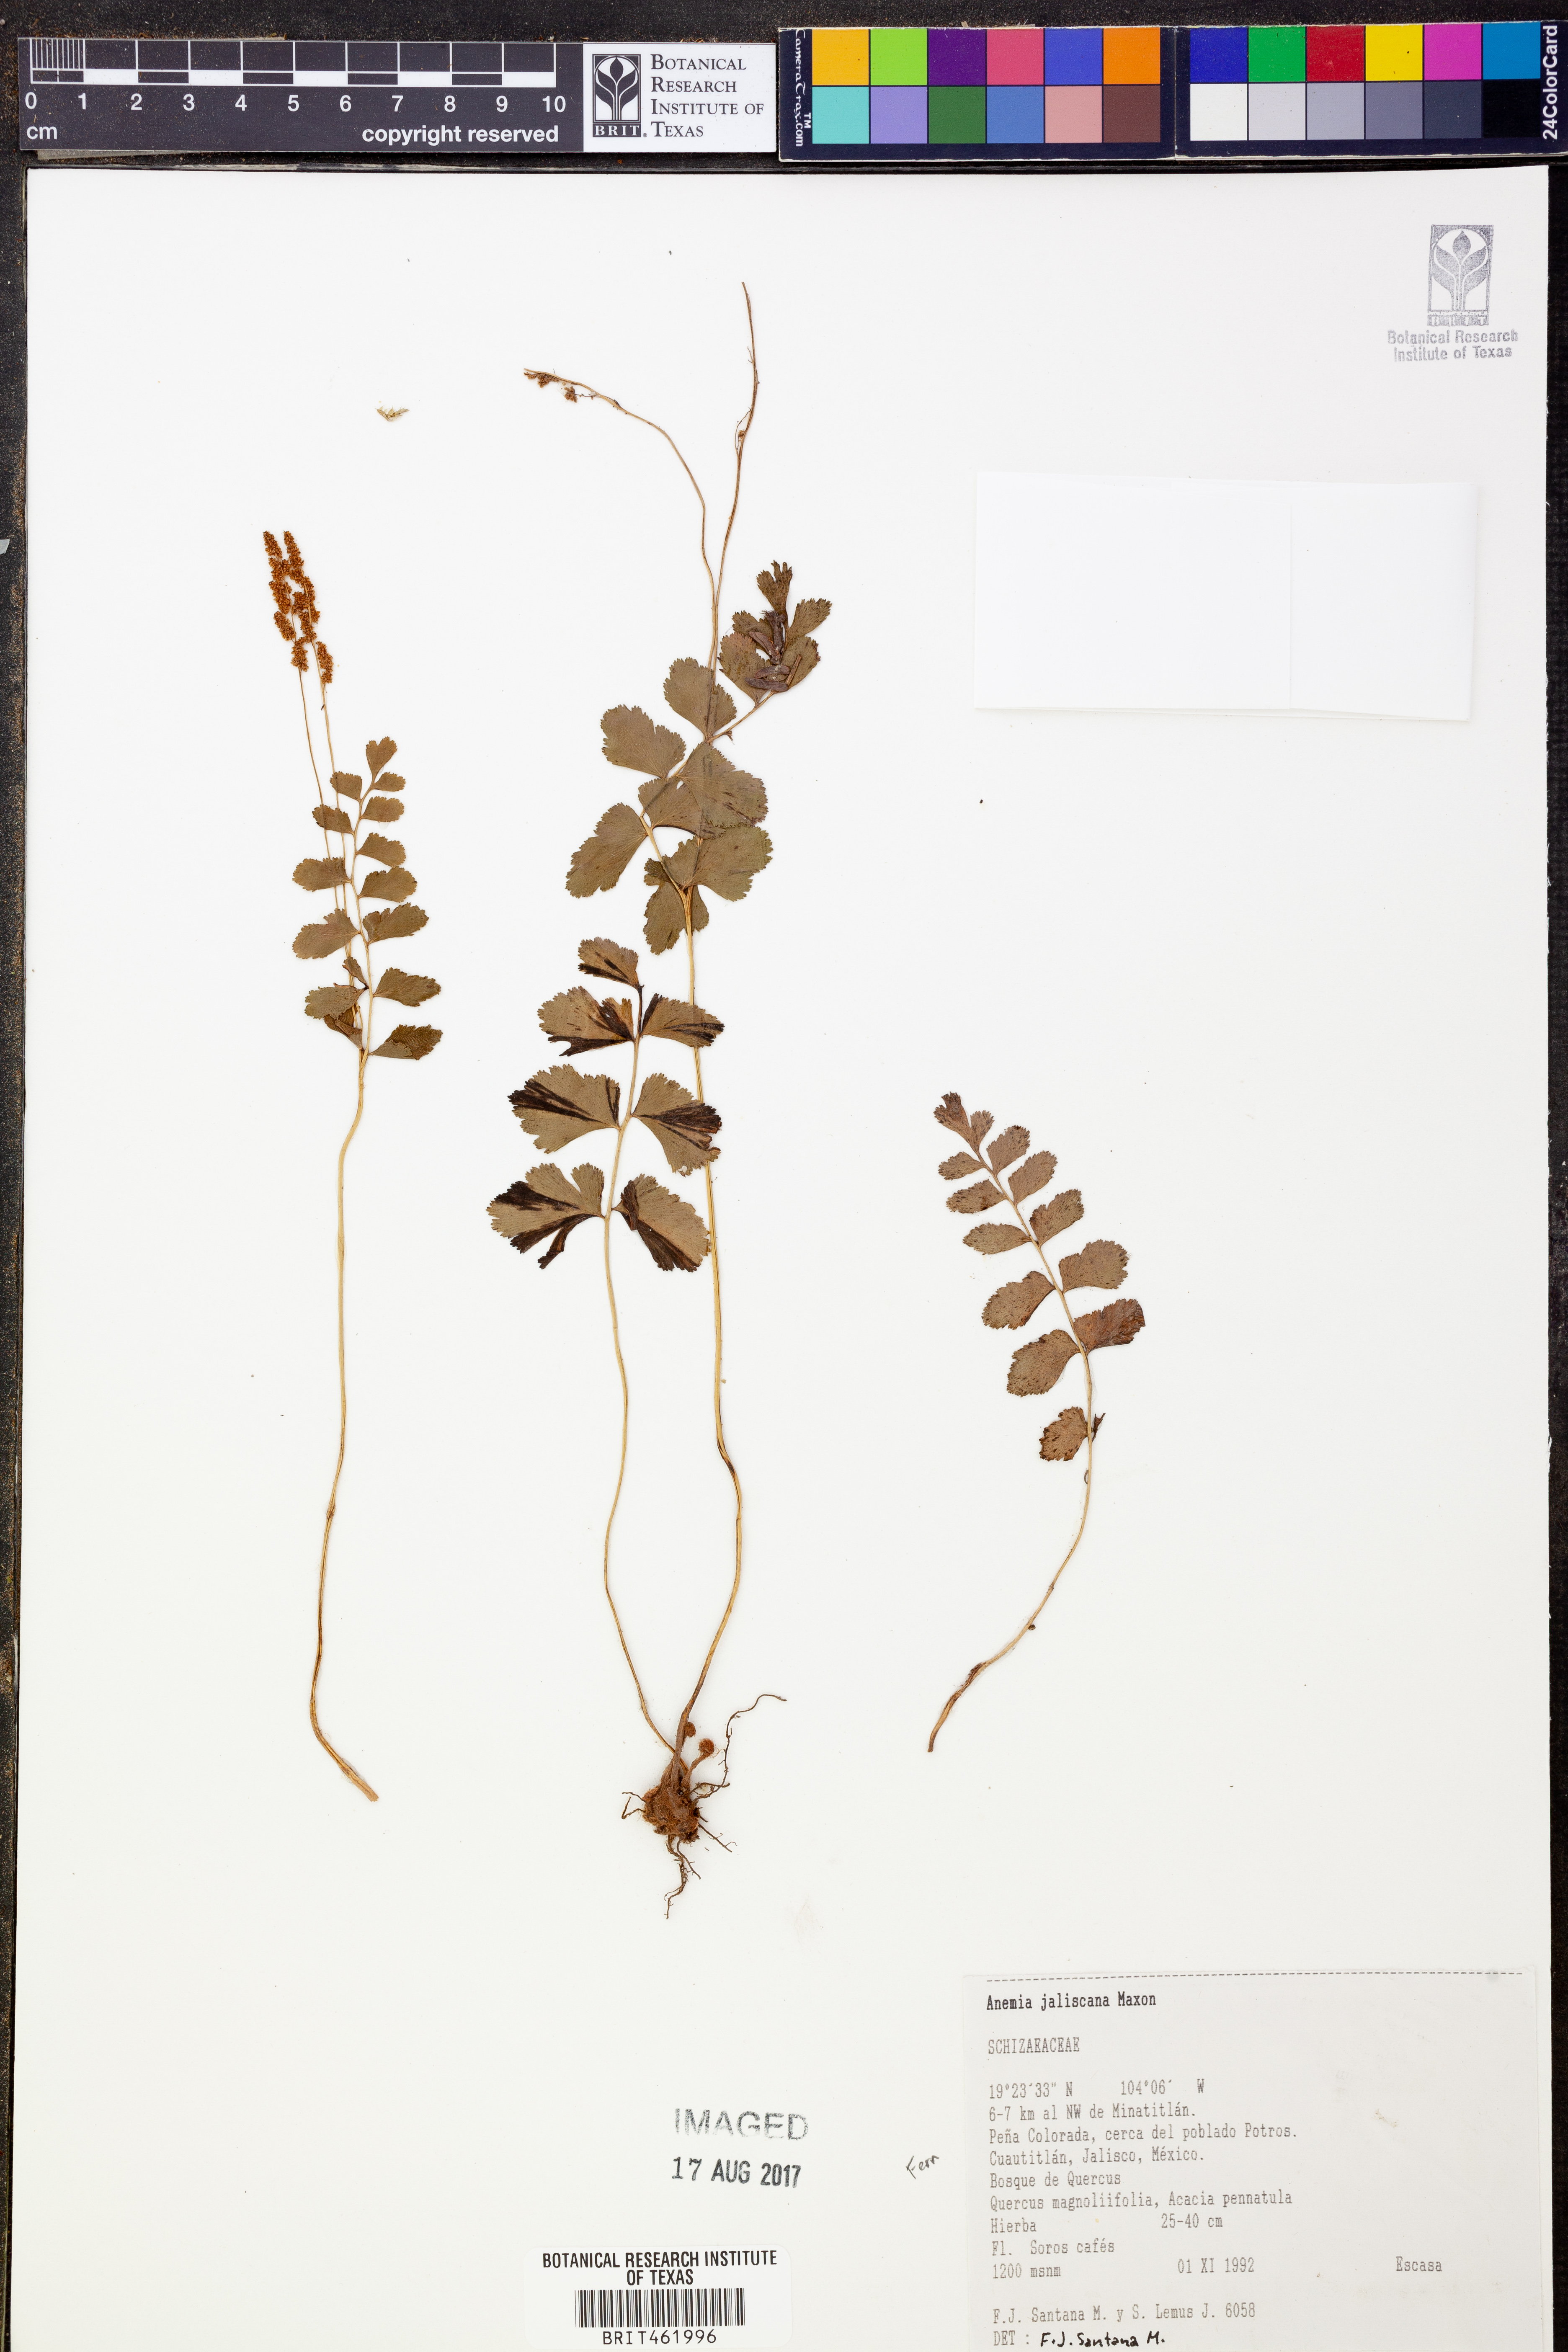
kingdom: Plantae
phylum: Tracheophyta
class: Polypodiopsida
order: Schizaeales
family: Anemiaceae
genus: Anemia
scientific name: Anemia jaliscana
